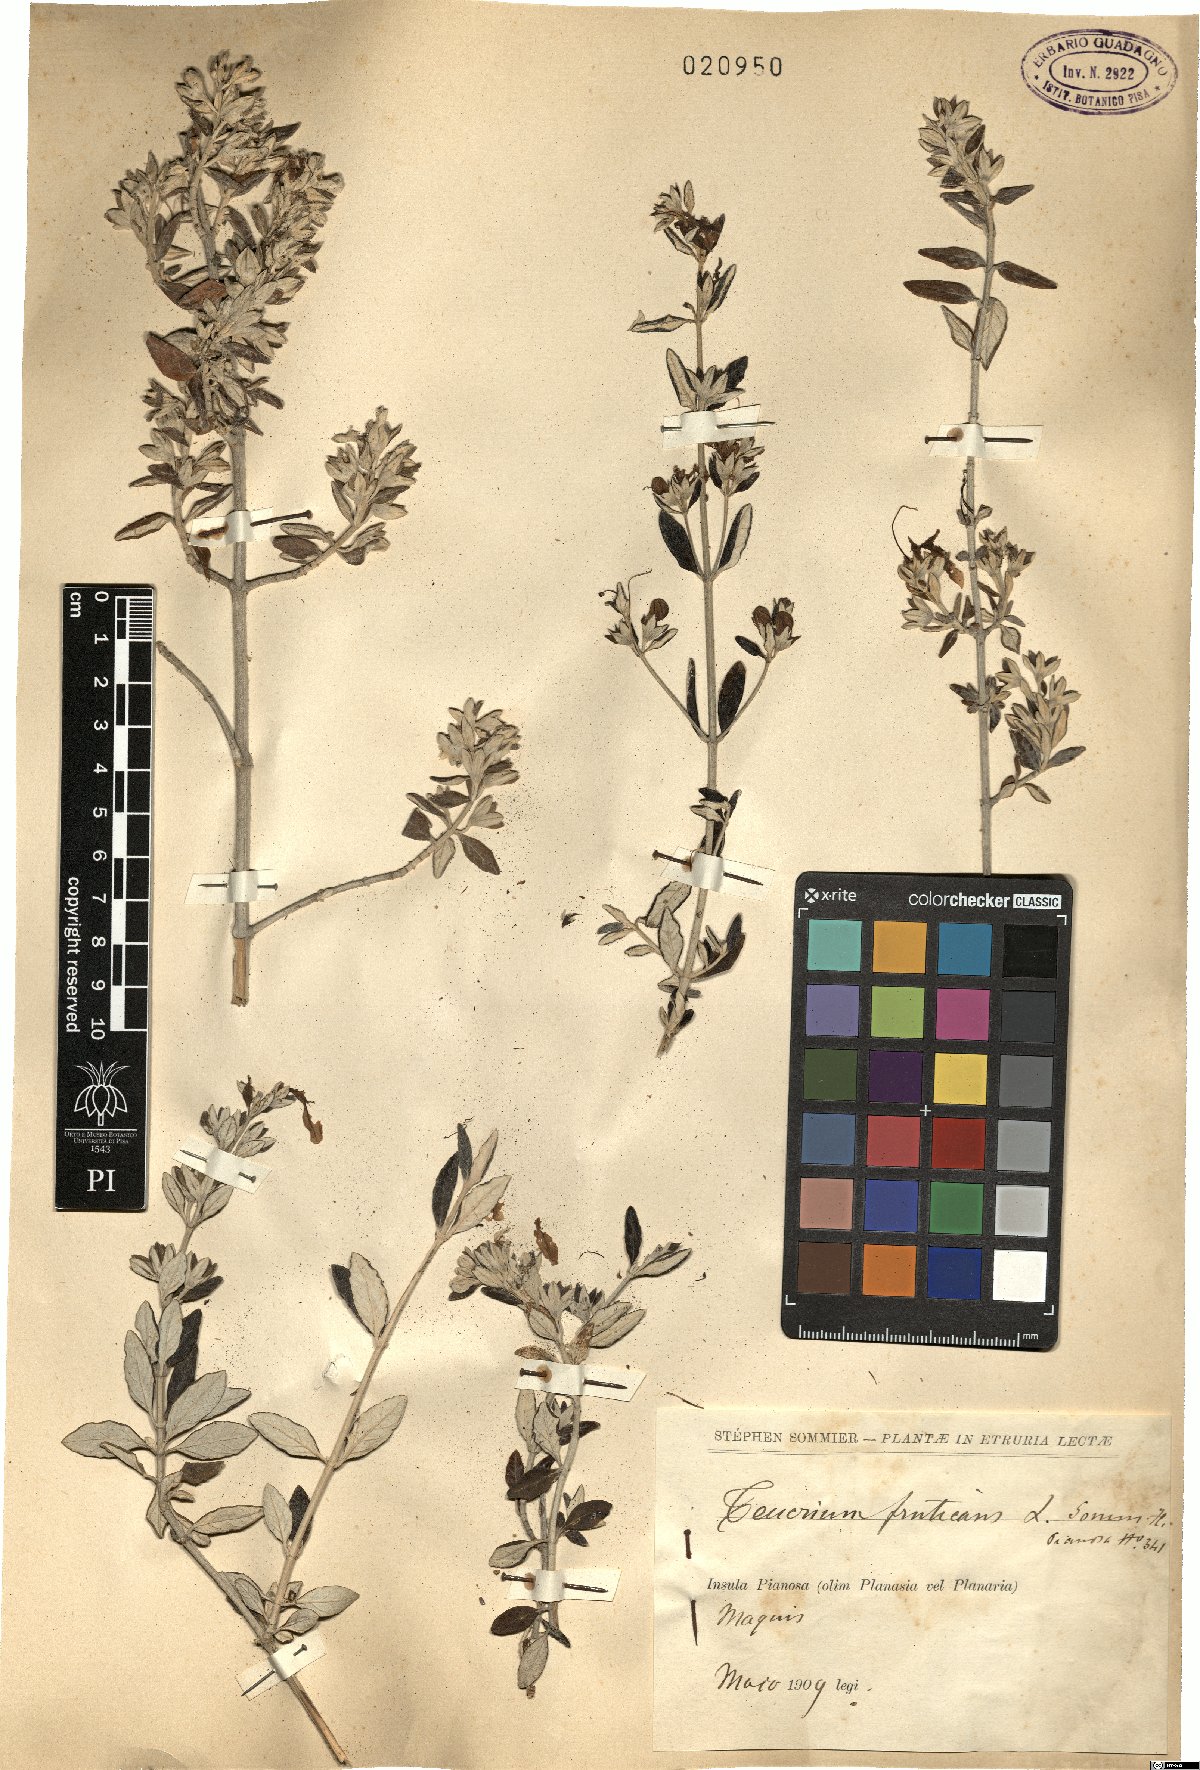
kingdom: Plantae
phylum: Tracheophyta
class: Magnoliopsida
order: Lamiales
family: Lamiaceae
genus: Teucrium
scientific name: Teucrium fruticans
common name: Shrubby germander
